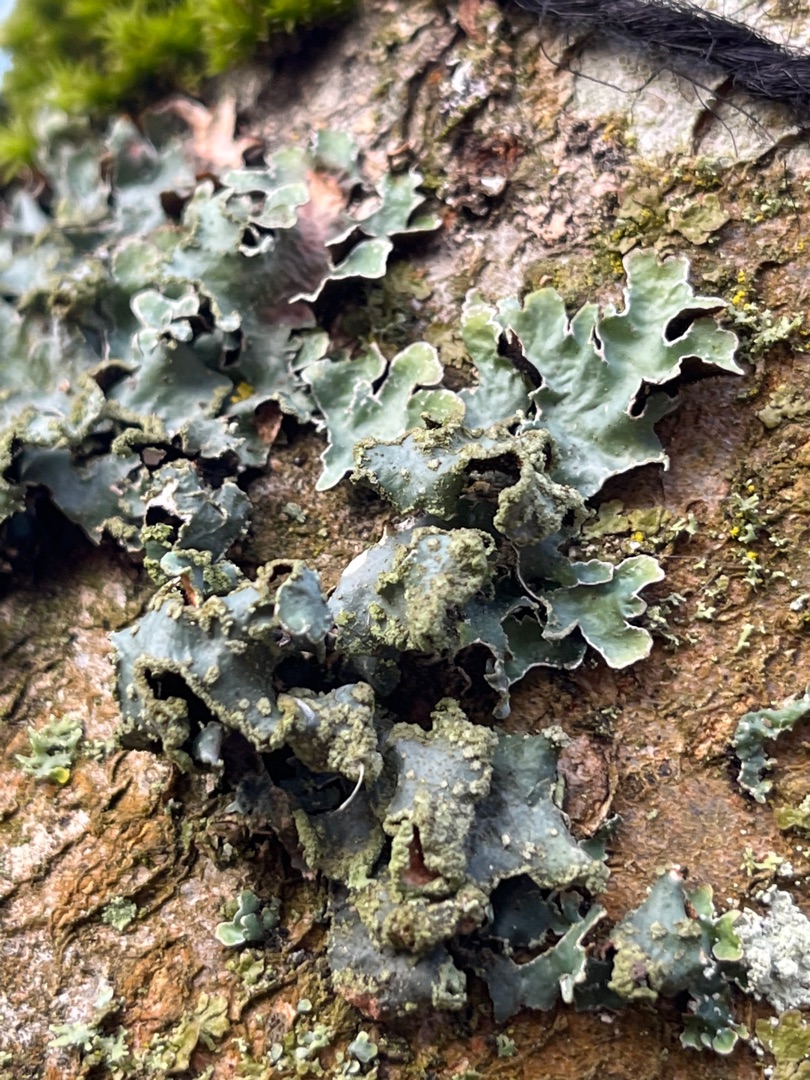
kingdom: Fungi
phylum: Ascomycota
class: Lecanoromycetes
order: Lecanorales
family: Parmeliaceae
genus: Parmelia
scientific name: Parmelia sulcata
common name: Rynket skållav
